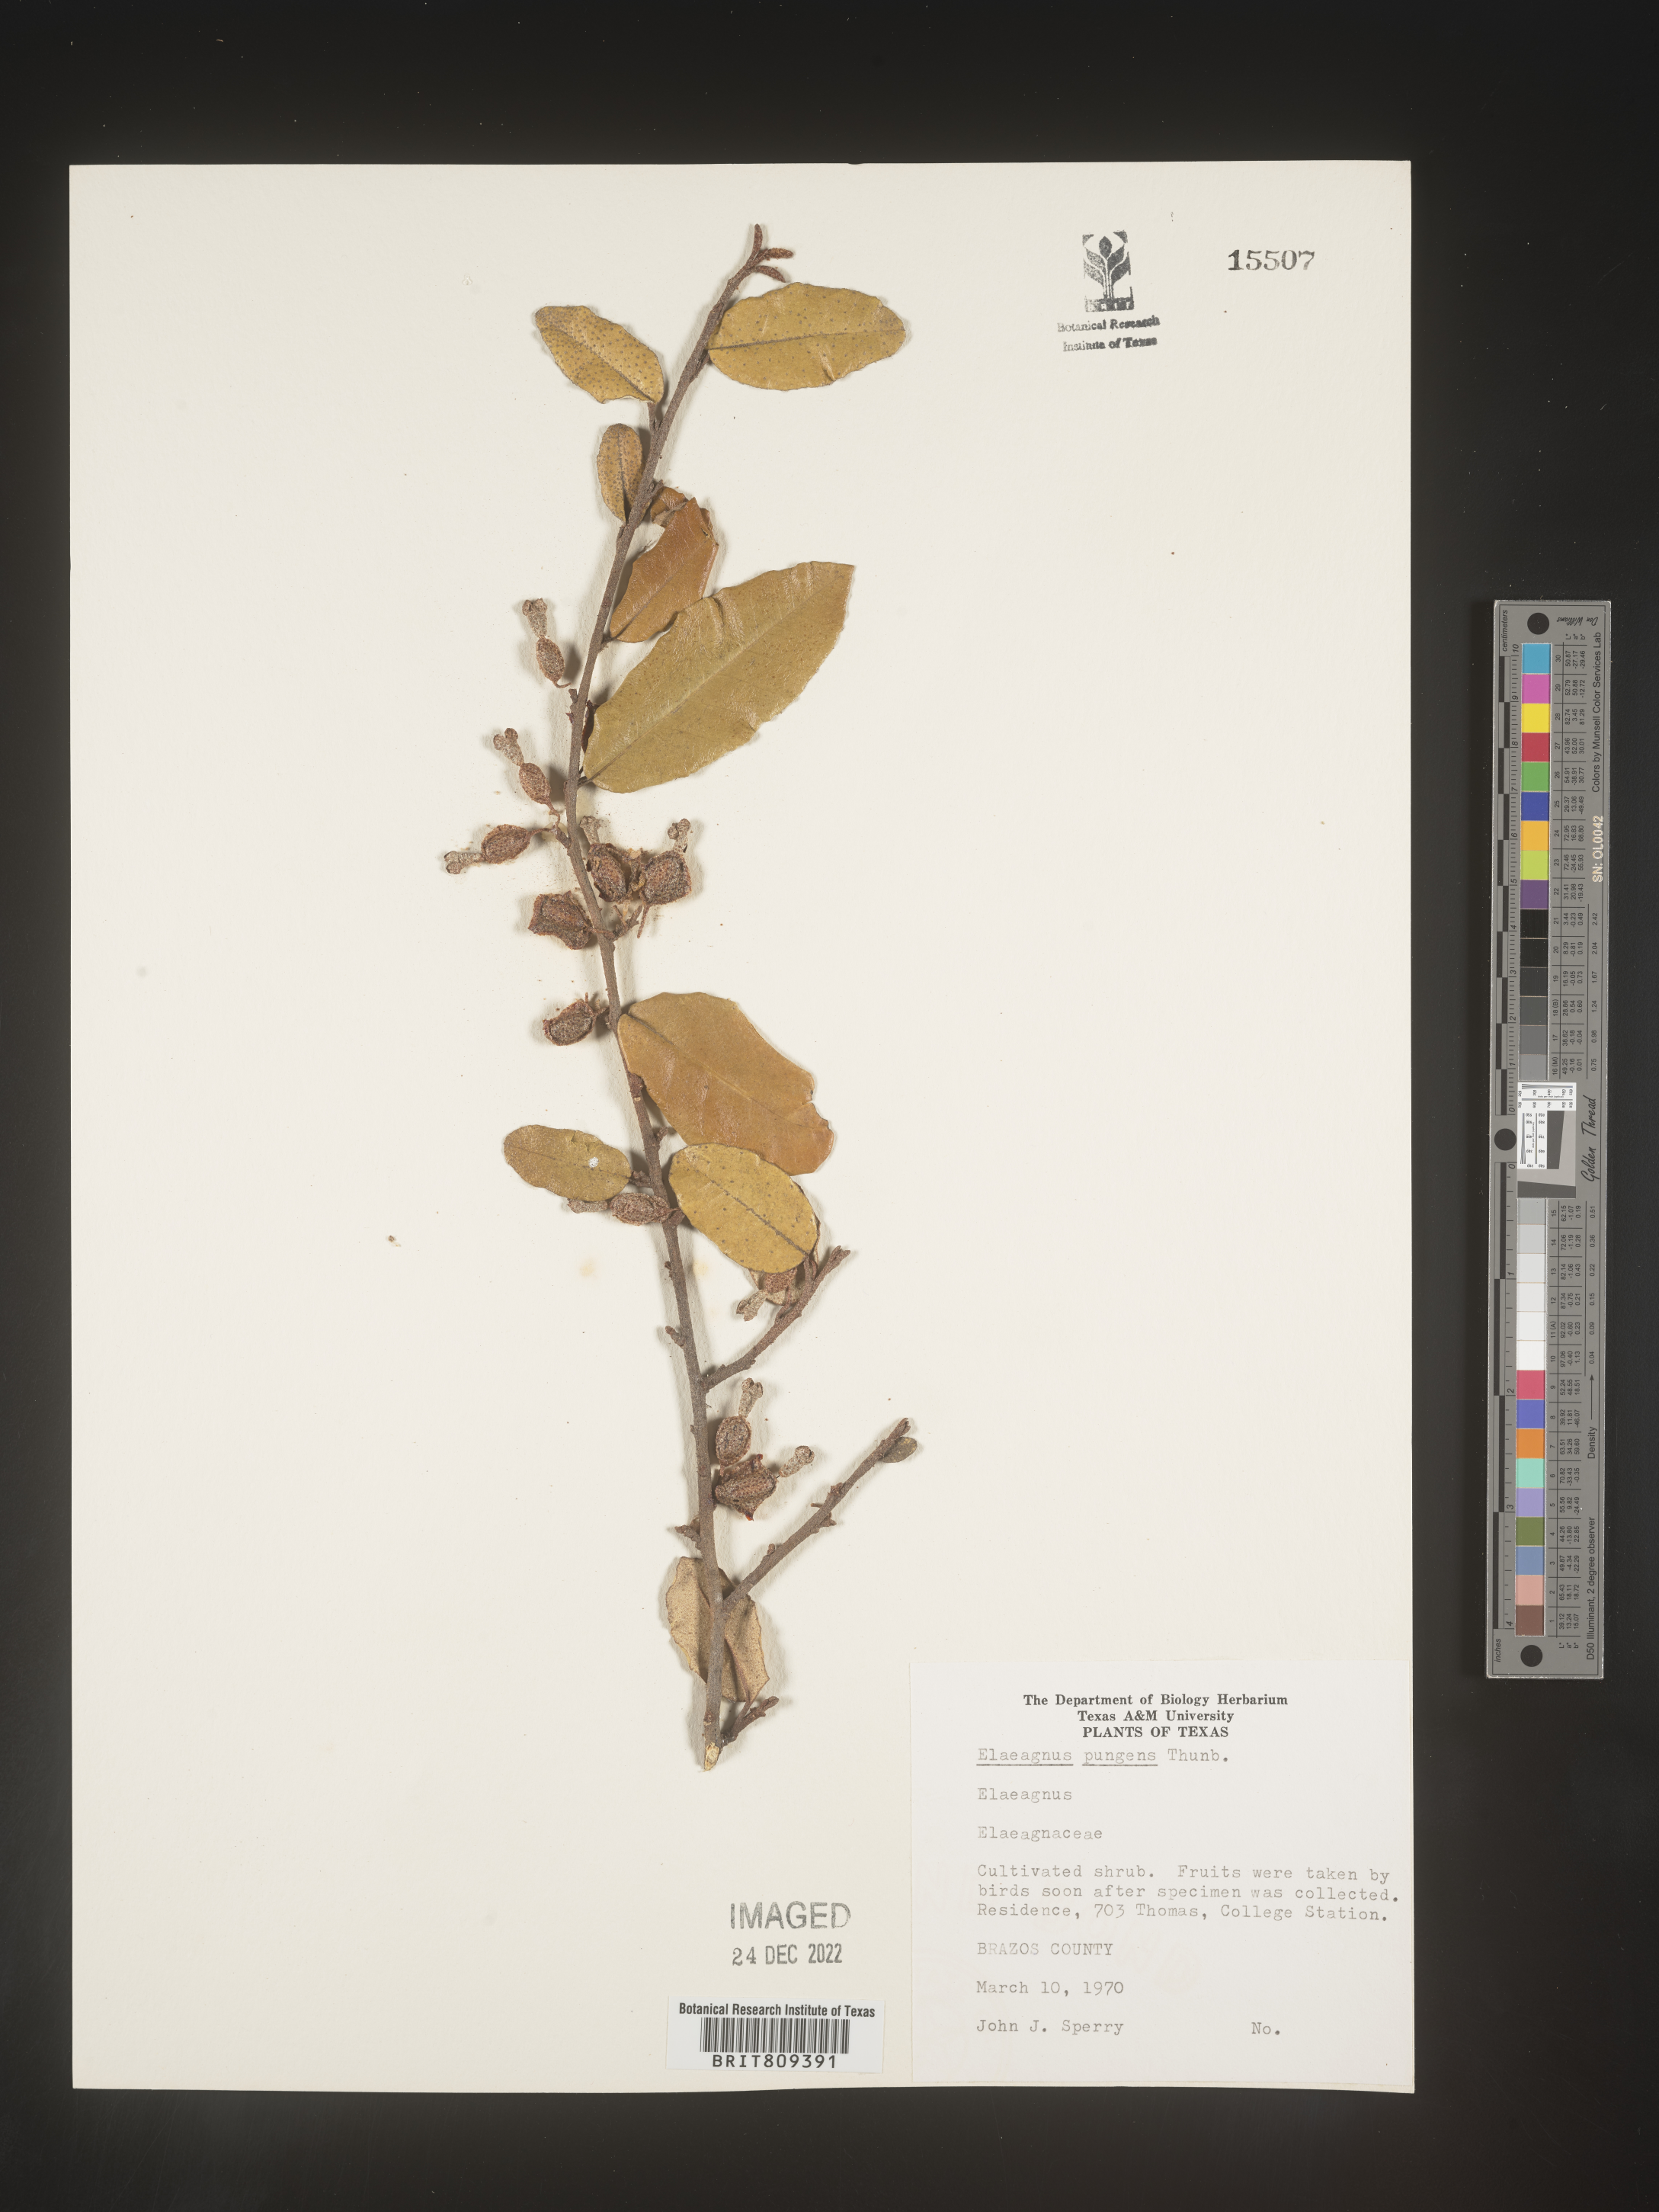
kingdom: Plantae
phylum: Tracheophyta
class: Magnoliopsida
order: Rosales
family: Elaeagnaceae
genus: Elaeagnus
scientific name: Elaeagnus
